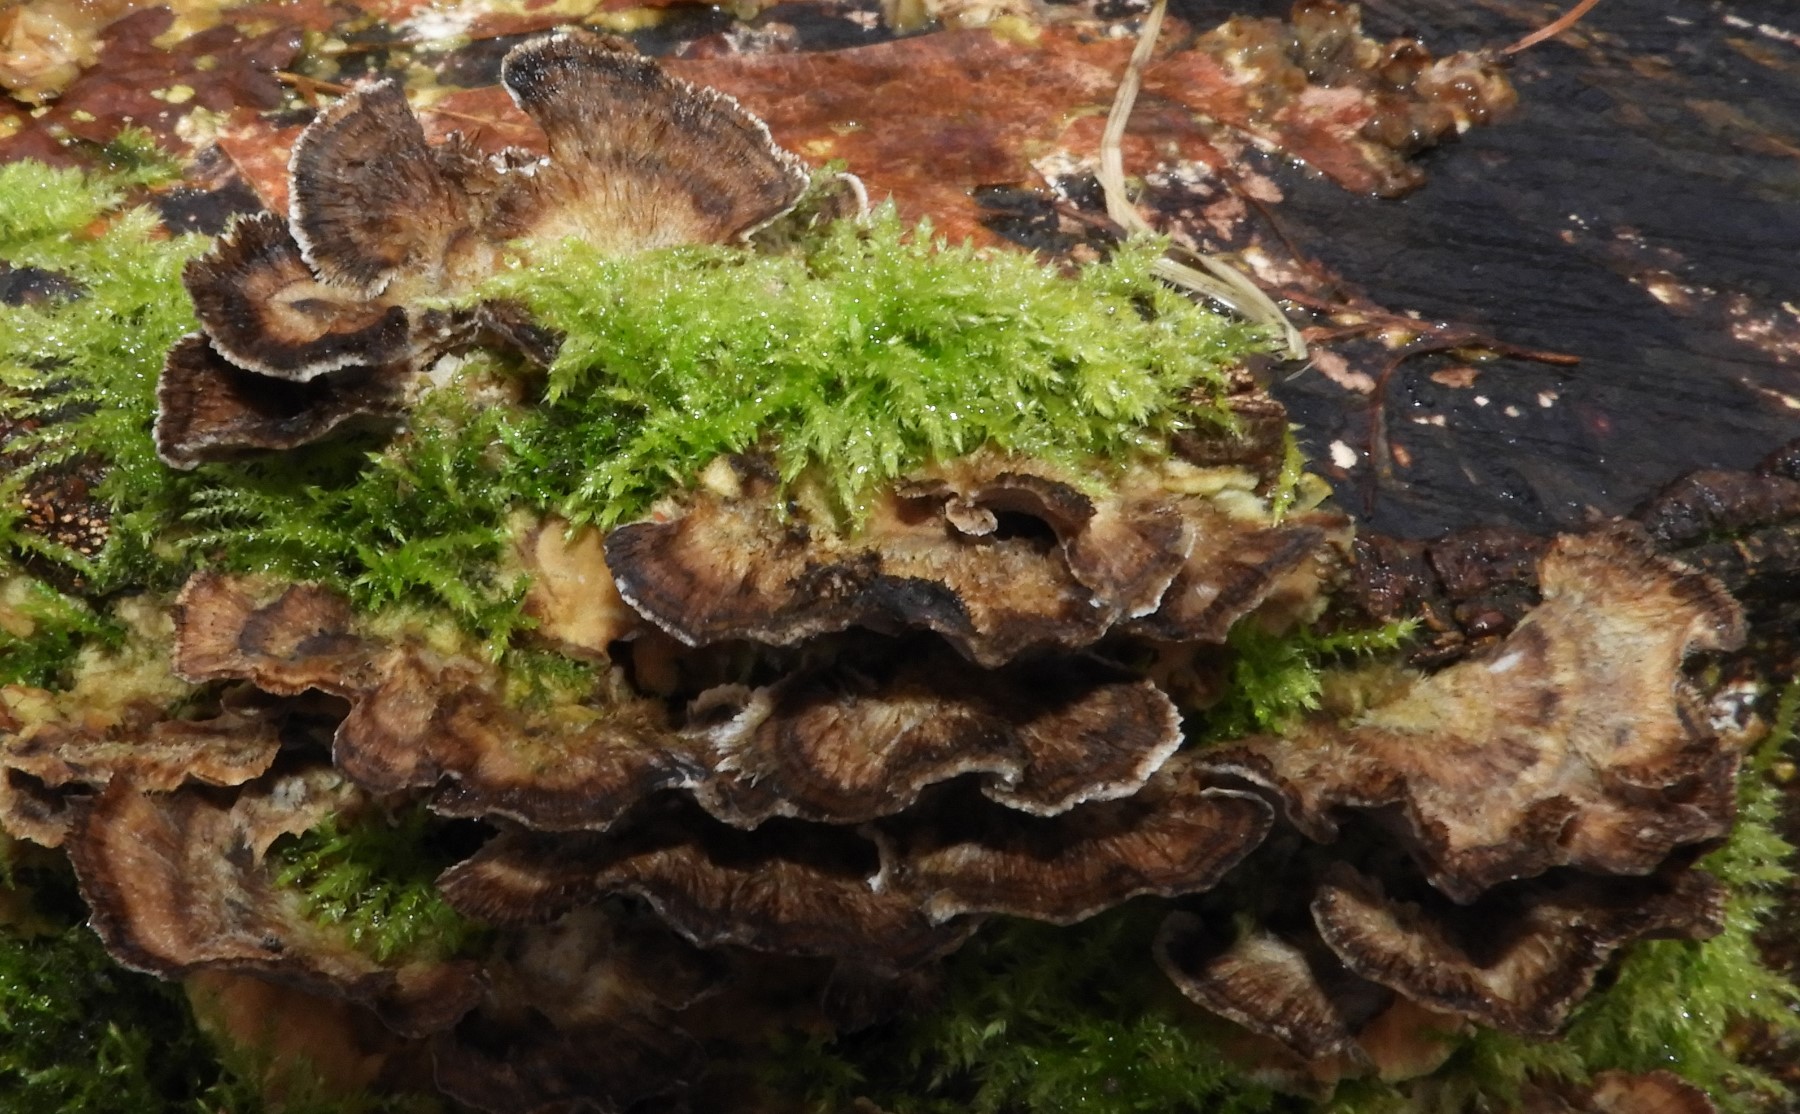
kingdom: Fungi
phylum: Basidiomycota
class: Agaricomycetes
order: Polyporales
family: Phanerochaetaceae
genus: Bjerkandera
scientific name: Bjerkandera adusta
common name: sveden sodporesvamp
